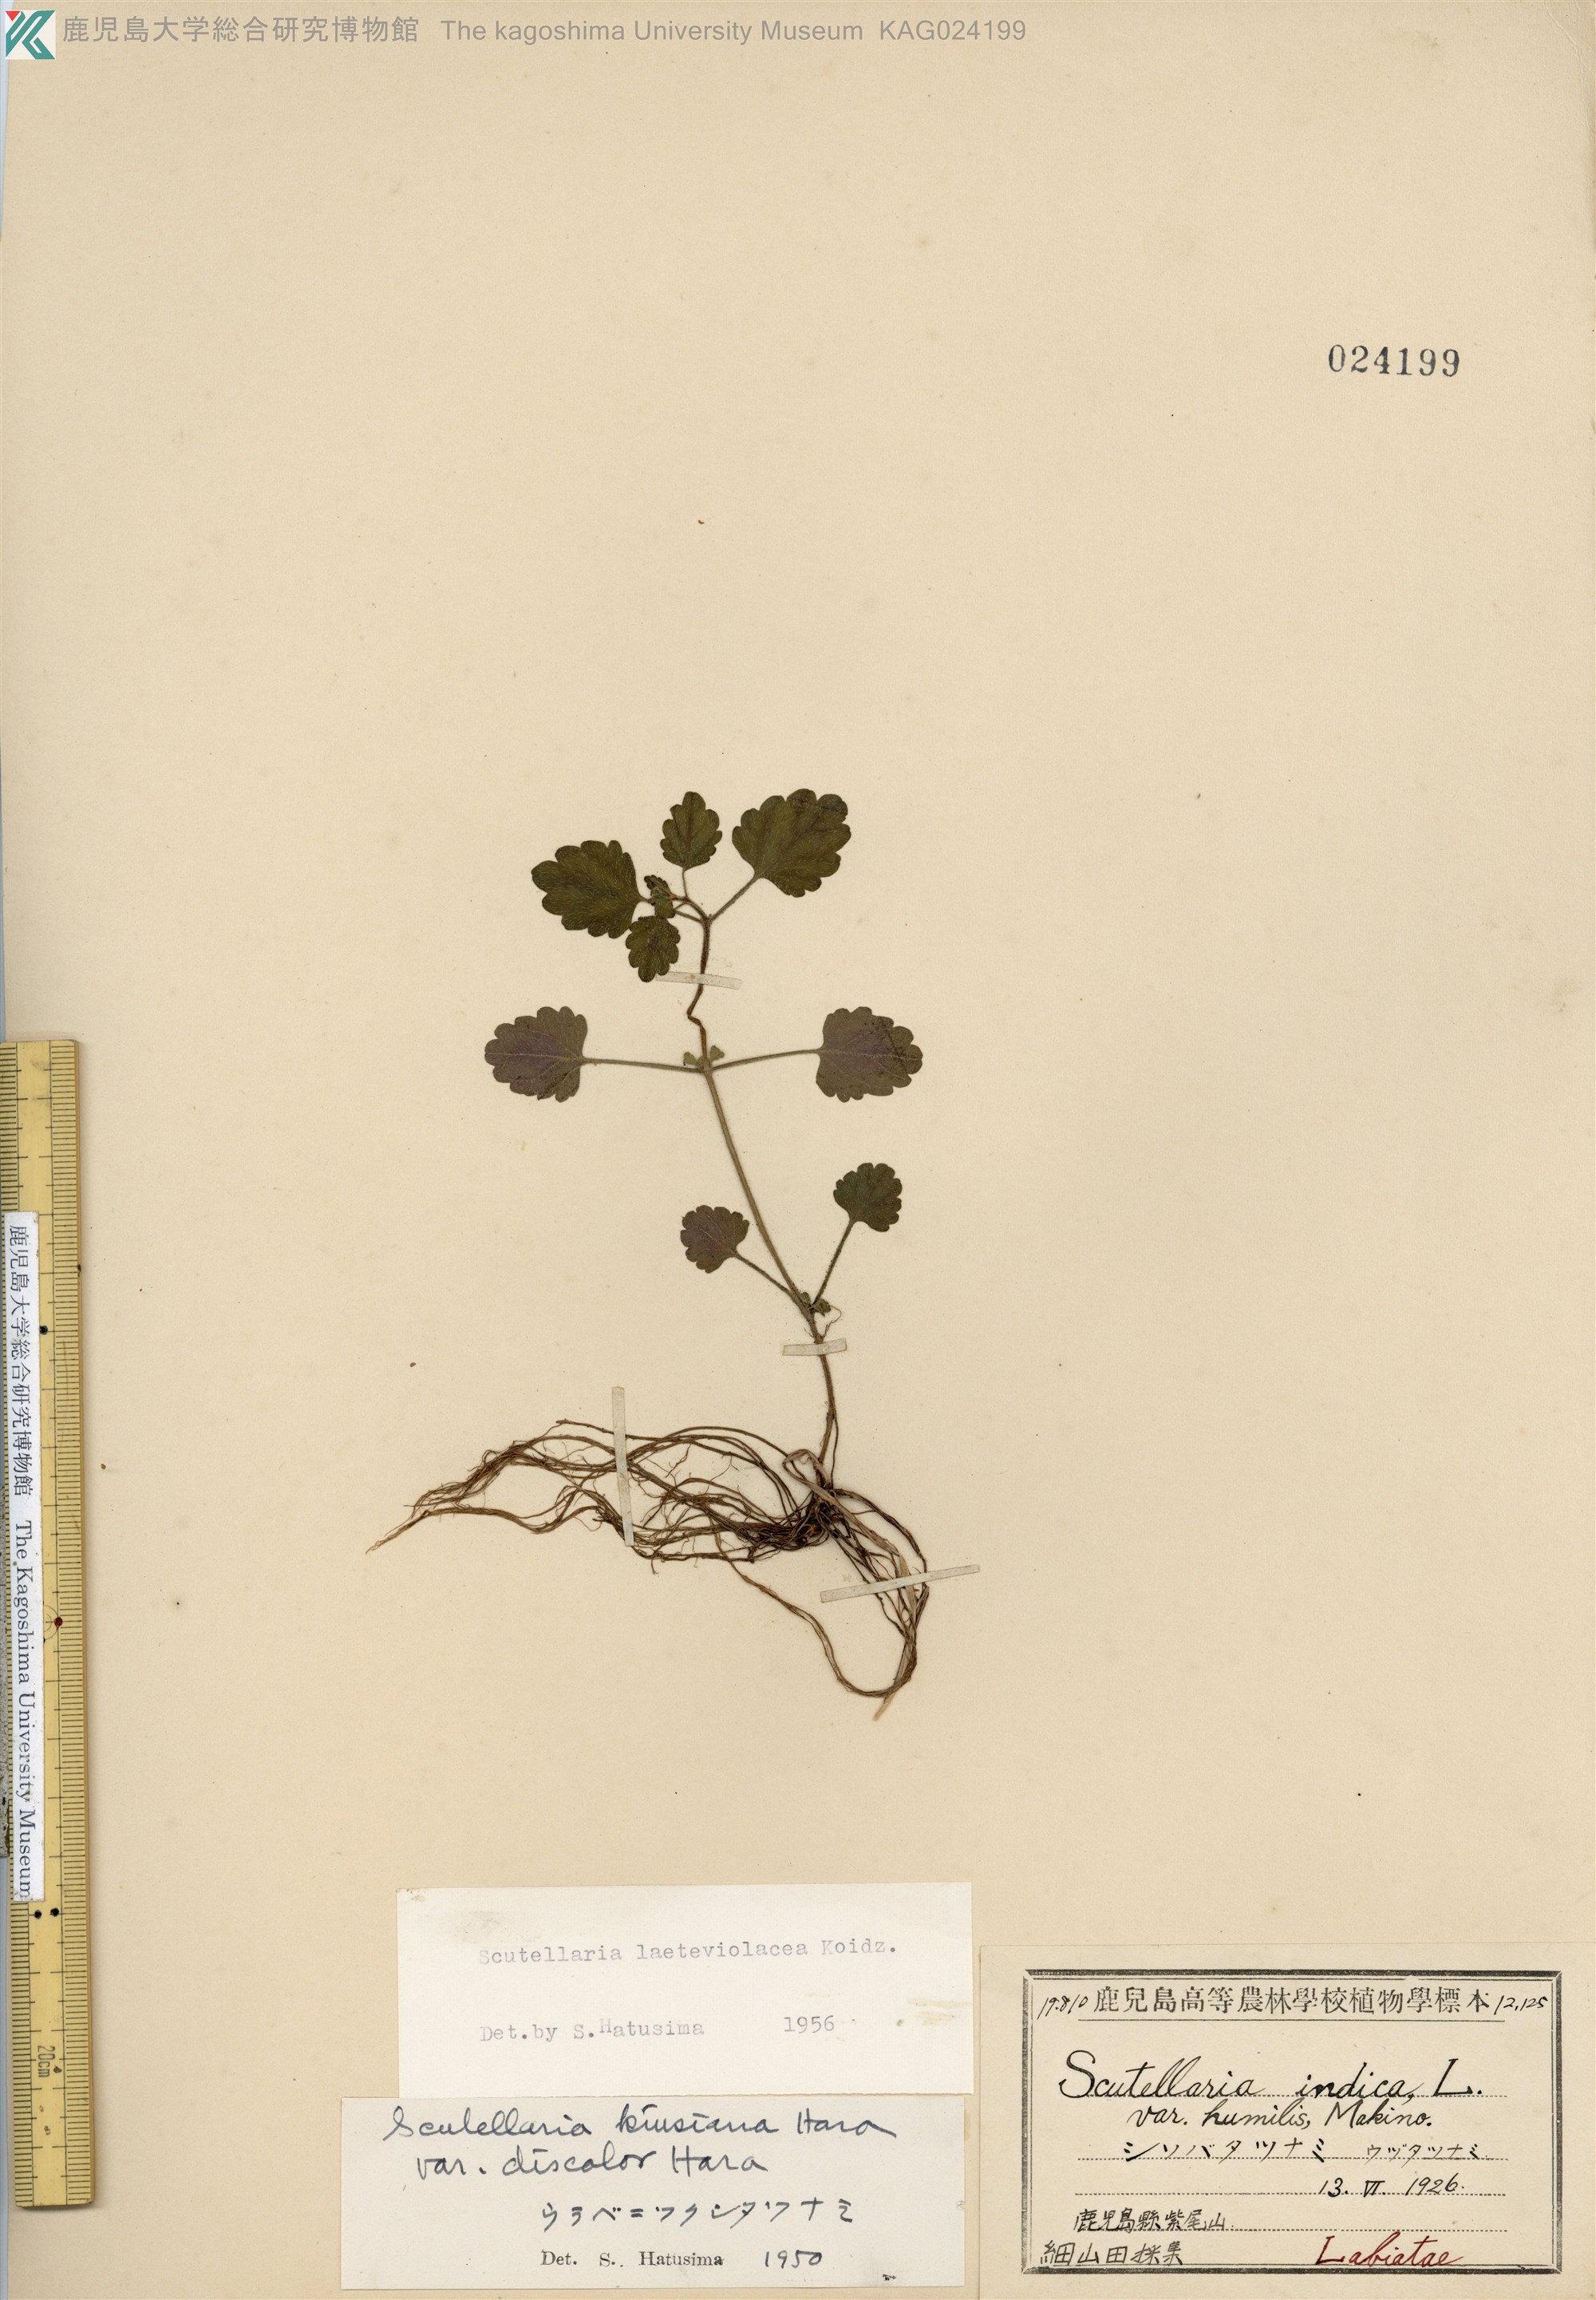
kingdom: Plantae
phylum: Tracheophyta
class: Magnoliopsida
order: Lamiales
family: Lamiaceae
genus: Scutellaria
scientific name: Scutellaria laeteviolacea
